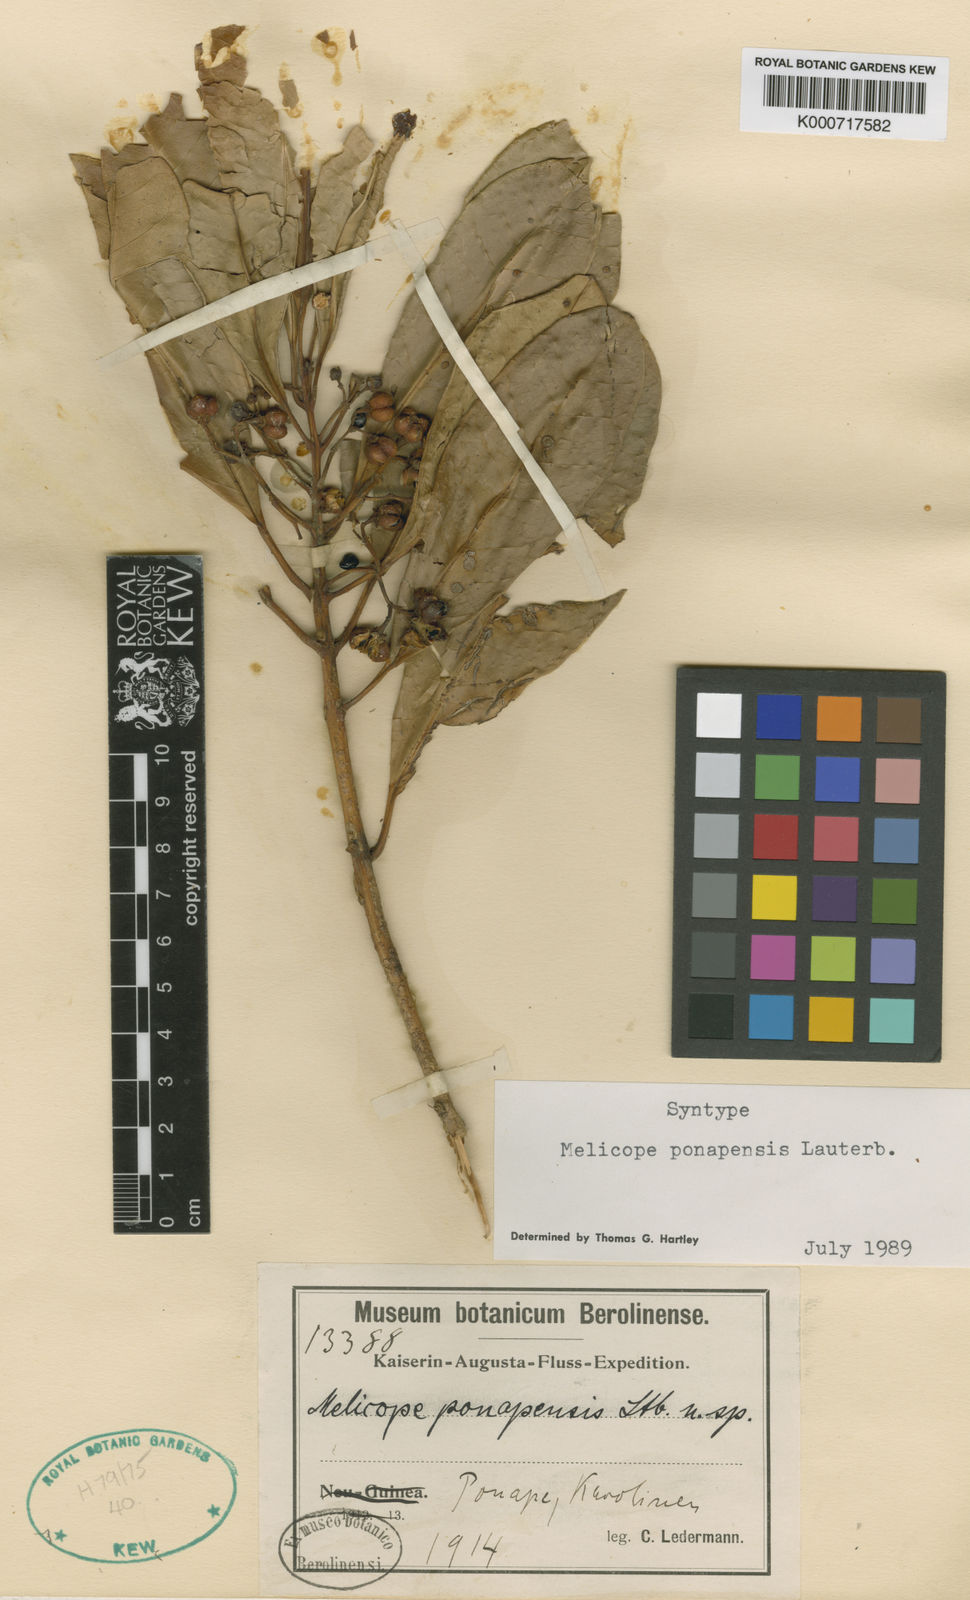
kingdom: Plantae
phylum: Tracheophyta
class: Magnoliopsida
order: Sapindales
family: Rutaceae
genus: Melicope
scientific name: Melicope ponapensis
